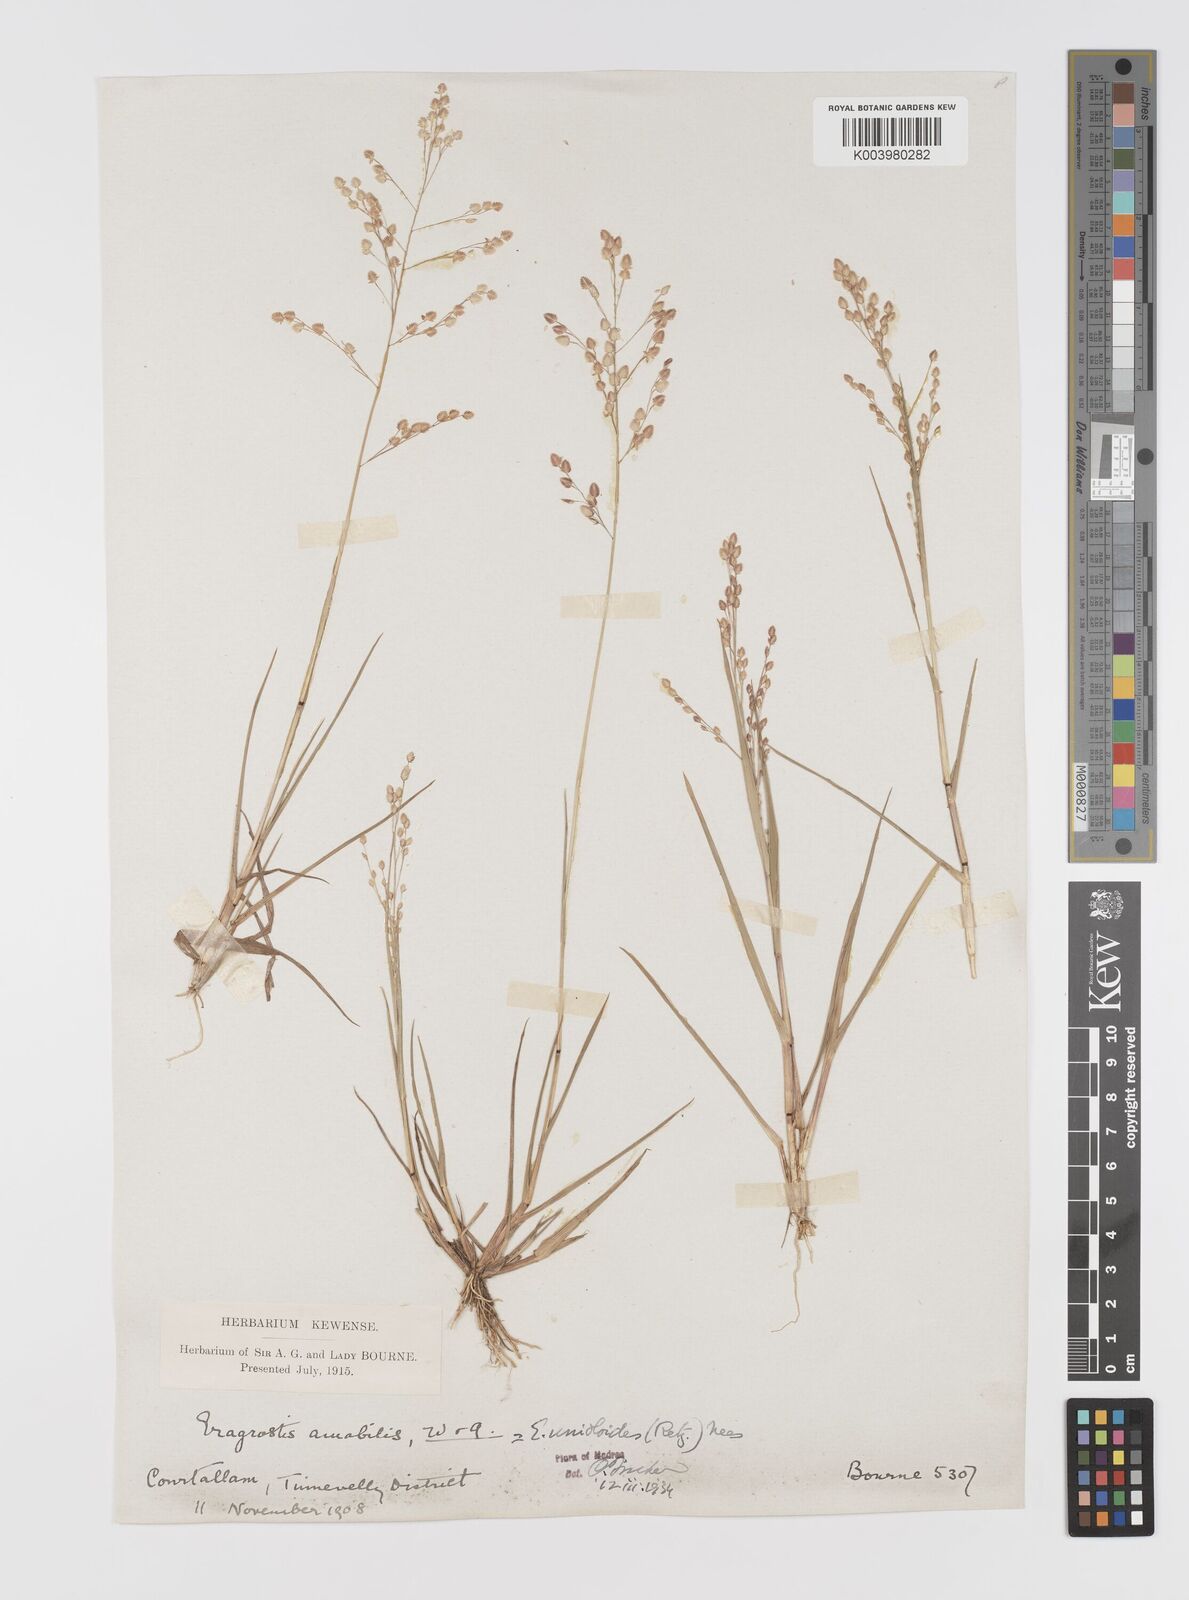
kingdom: Plantae
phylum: Tracheophyta
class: Liliopsida
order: Poales
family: Poaceae
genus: Eragrostis
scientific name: Eragrostis unioloides
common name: Chinese lovegrass
